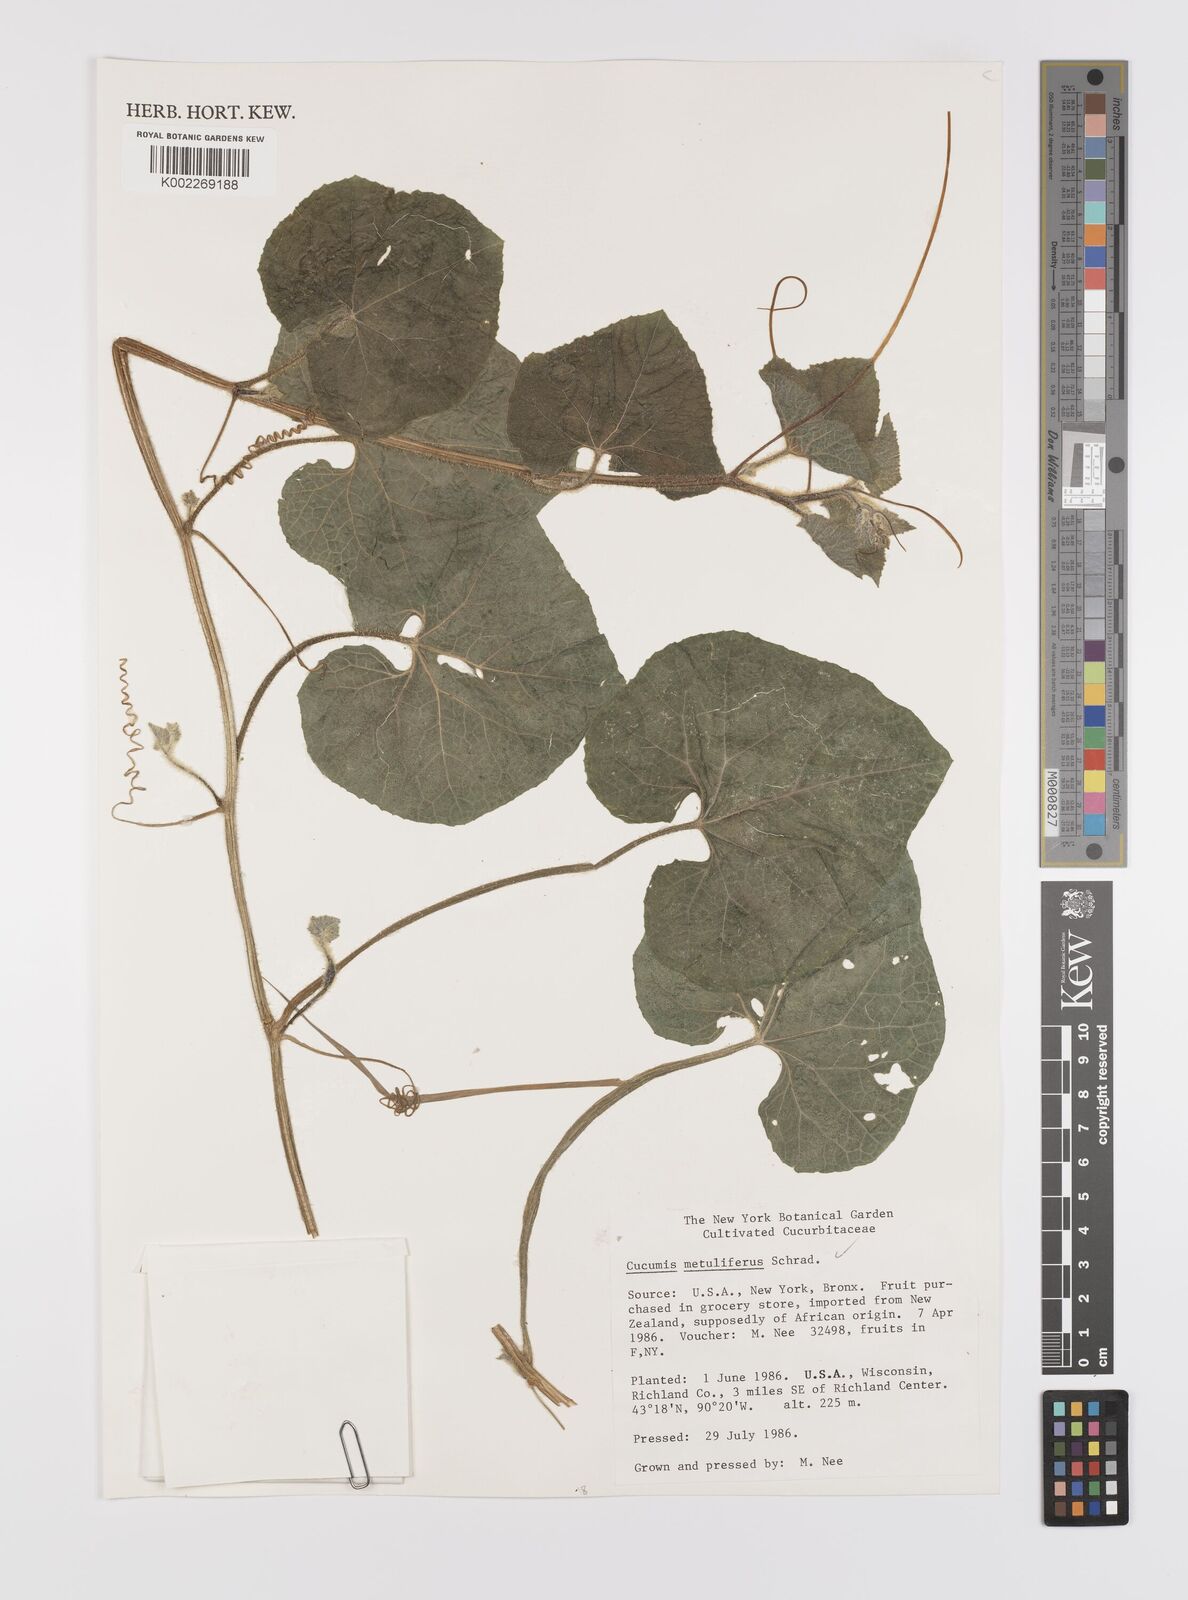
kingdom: Plantae
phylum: Tracheophyta
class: Magnoliopsida
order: Cucurbitales
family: Cucurbitaceae
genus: Cucumis
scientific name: Cucumis metuliferus
